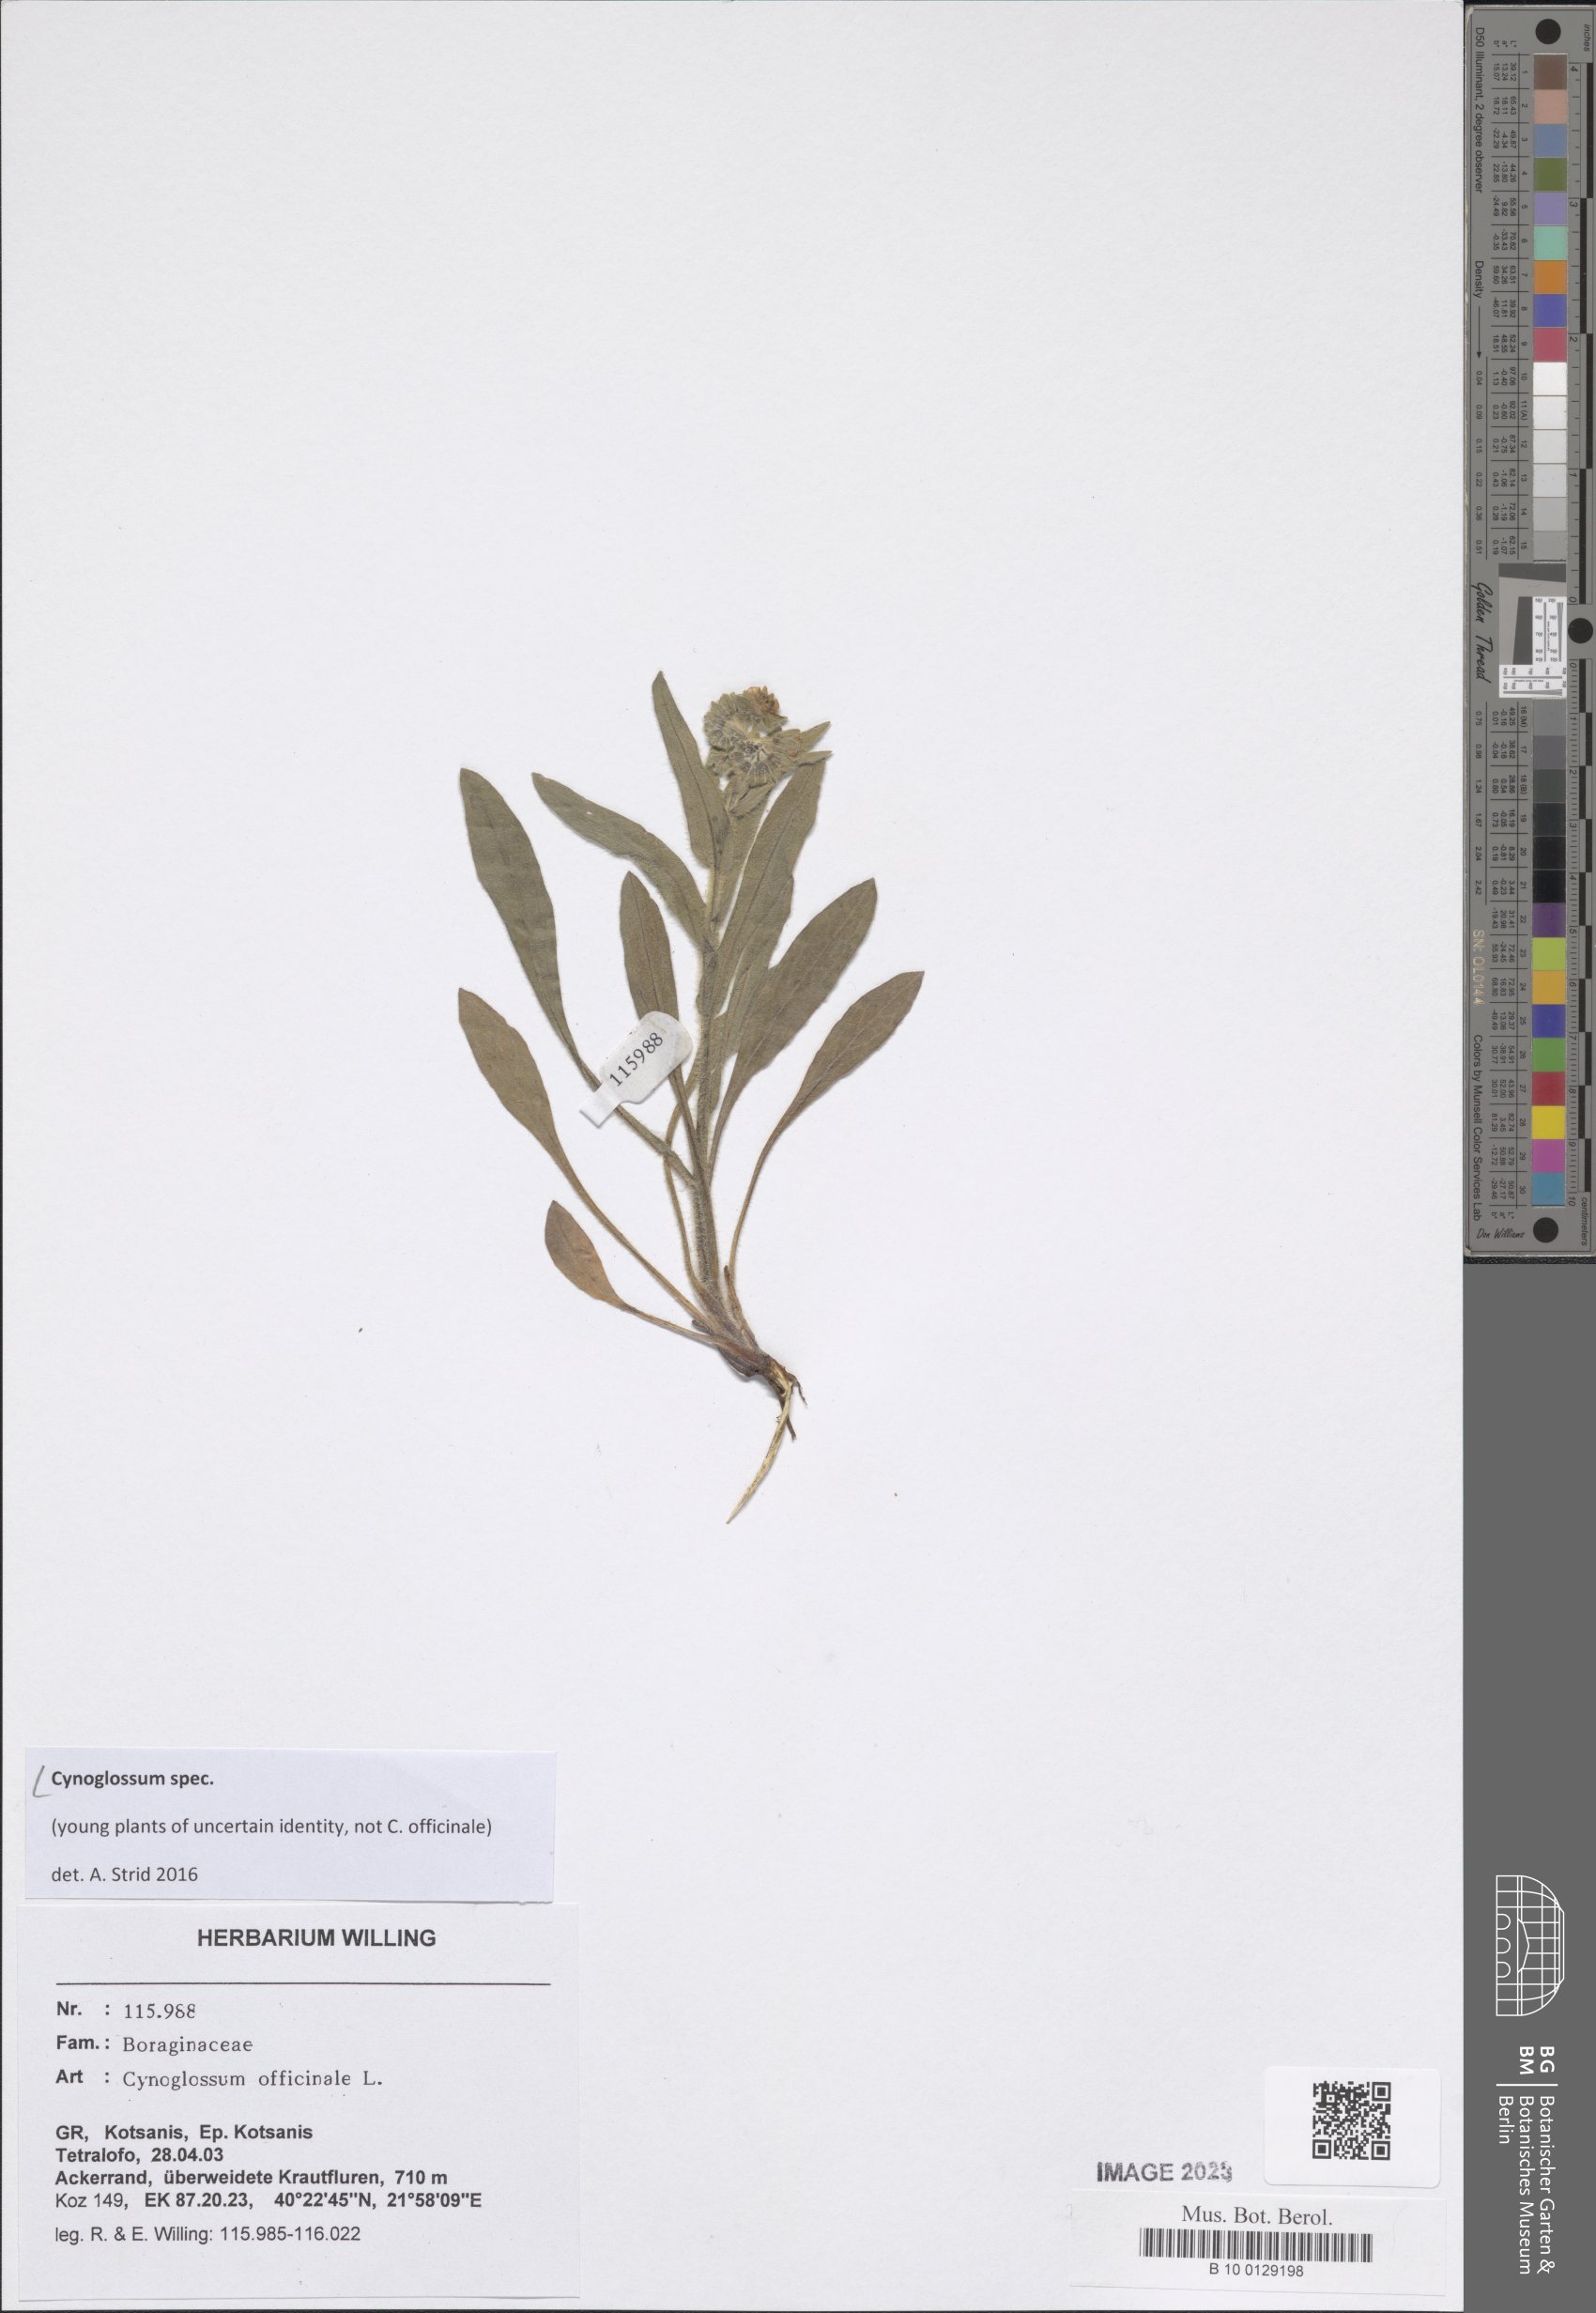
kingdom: Plantae
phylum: Tracheophyta
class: Magnoliopsida
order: Boraginales
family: Boraginaceae
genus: Cynoglossum
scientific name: Cynoglossum
